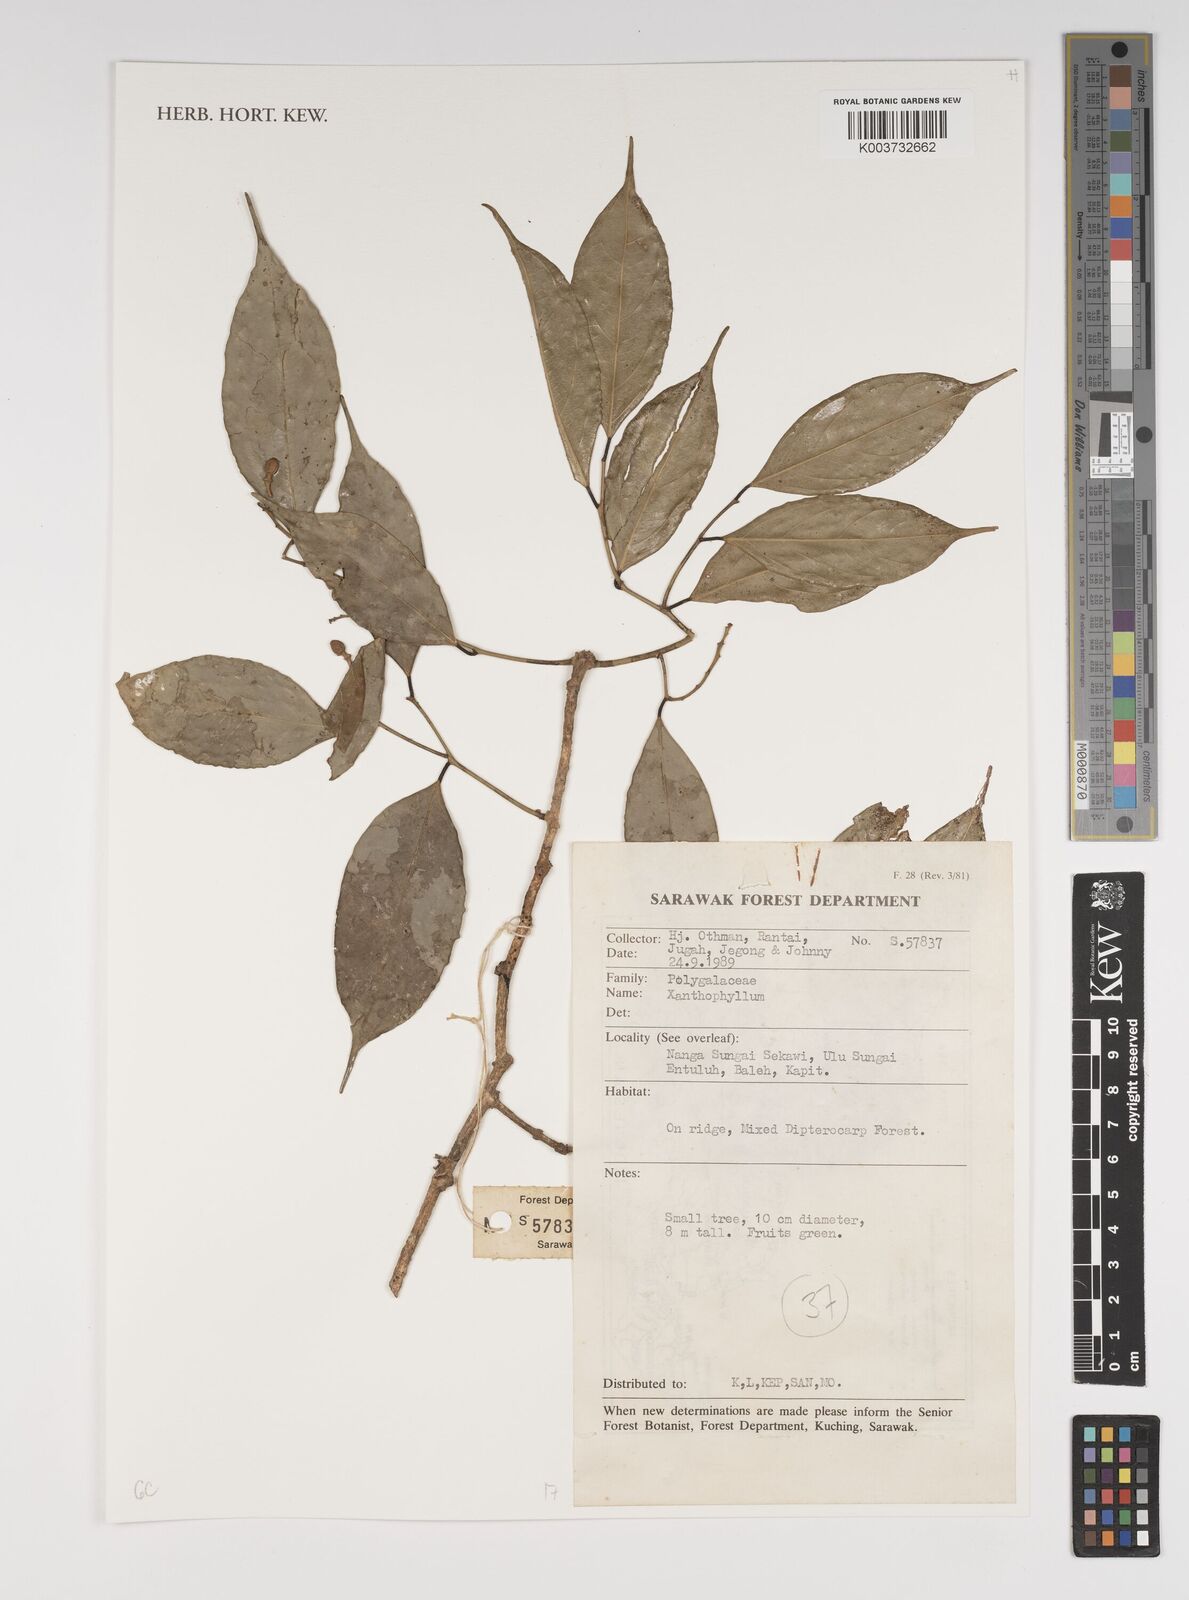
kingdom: Plantae
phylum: Tracheophyta
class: Magnoliopsida
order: Fabales
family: Polygalaceae
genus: Xanthophyllum
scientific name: Xanthophyllum
